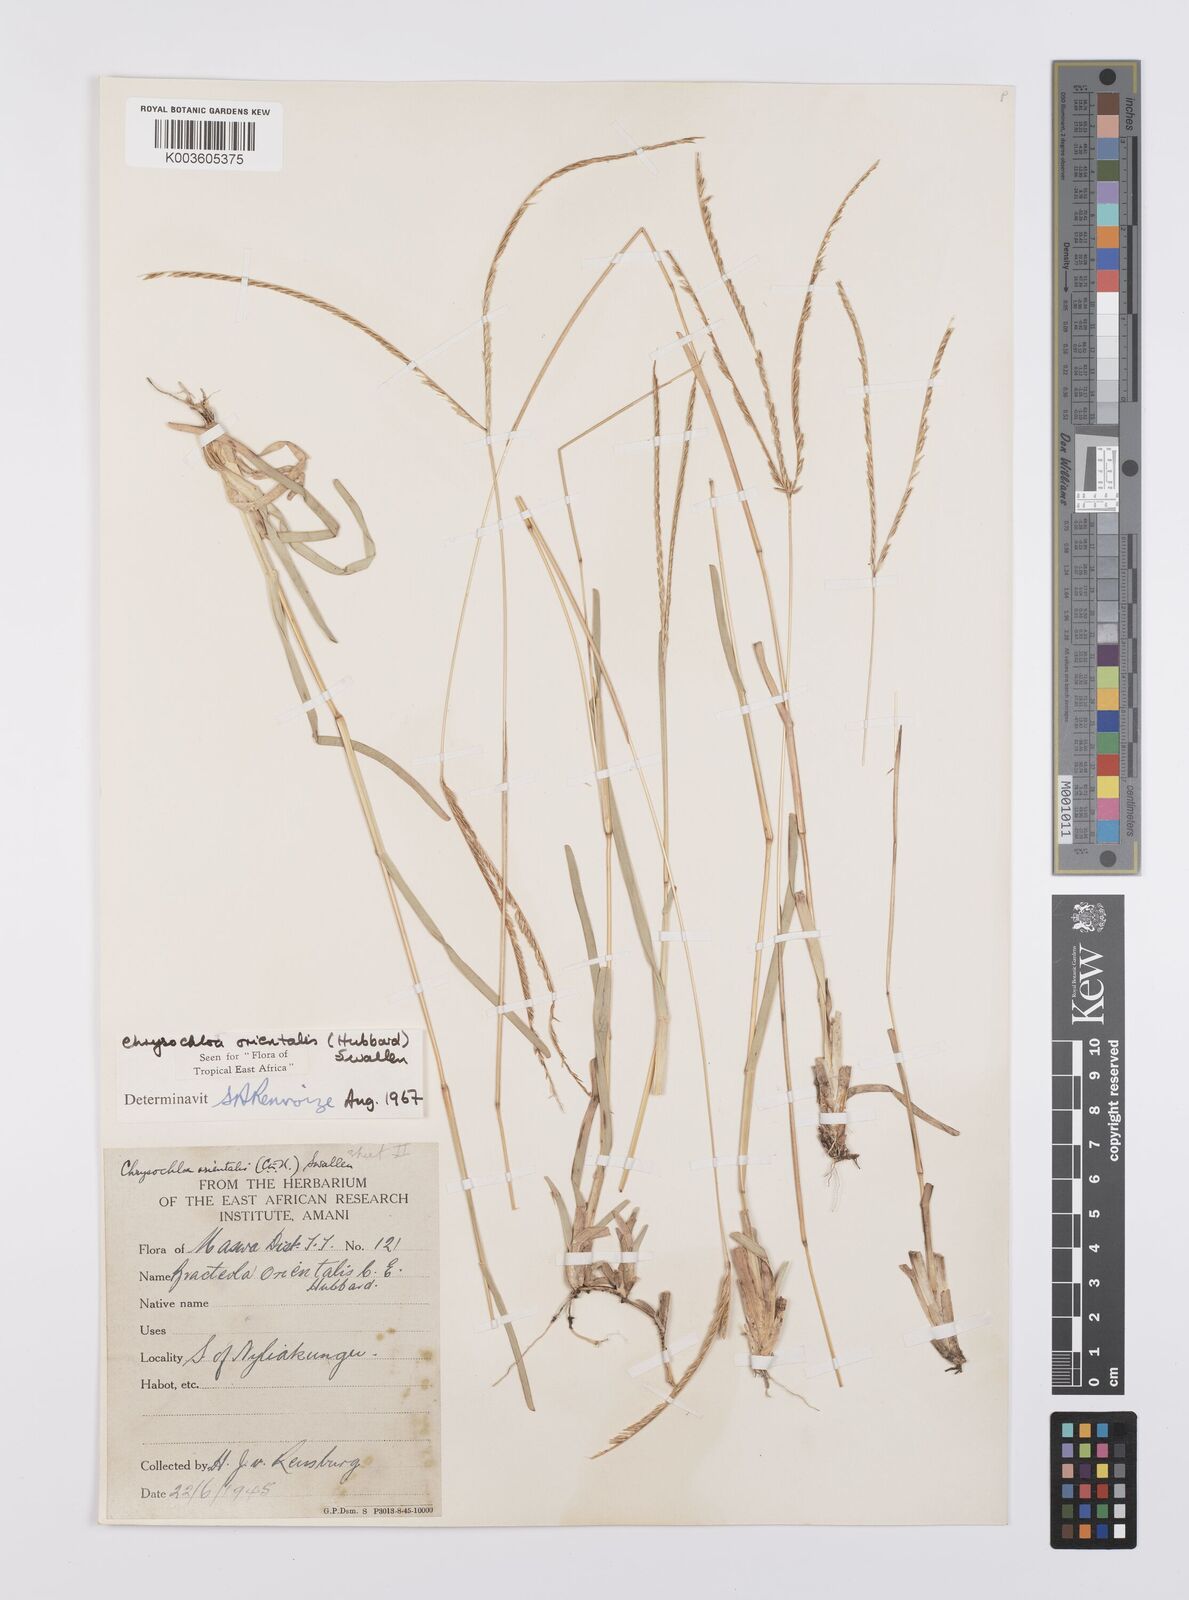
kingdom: Plantae
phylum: Tracheophyta
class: Liliopsida
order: Poales
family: Poaceae
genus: Chrysochloa
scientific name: Chrysochloa orientalis
